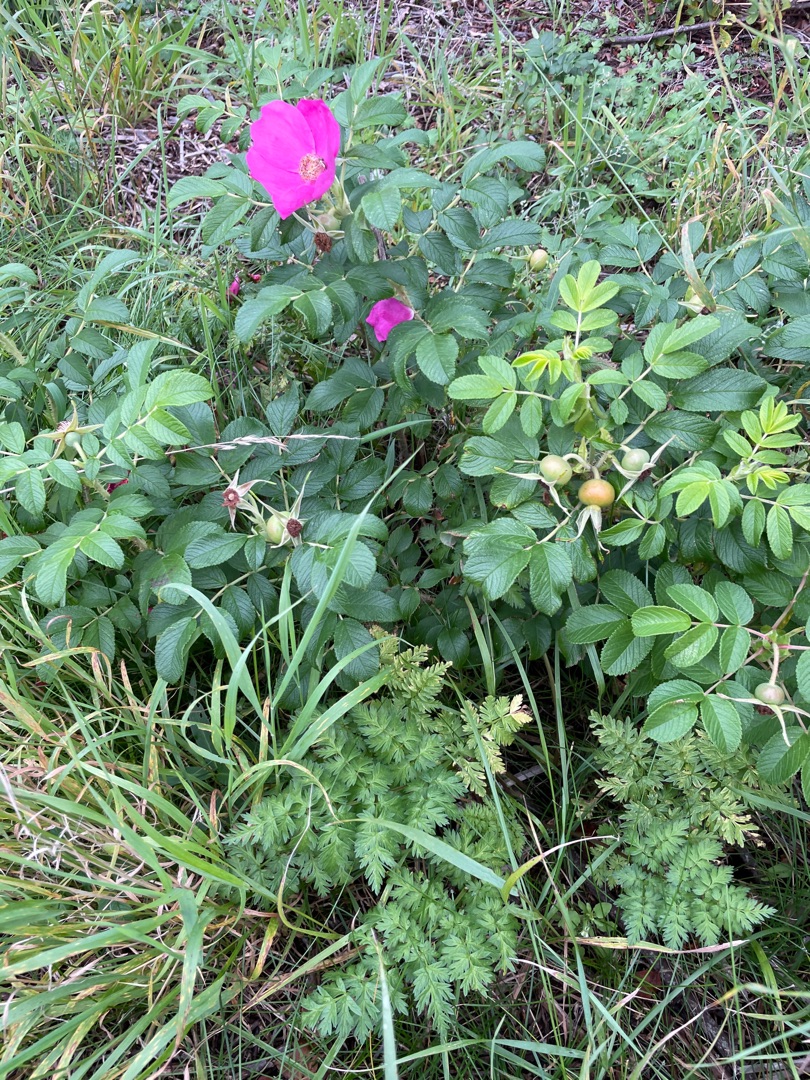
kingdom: Plantae
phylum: Tracheophyta
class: Magnoliopsida
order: Rosales
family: Rosaceae
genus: Rosa
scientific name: Rosa rugosa
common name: Rynket rose
